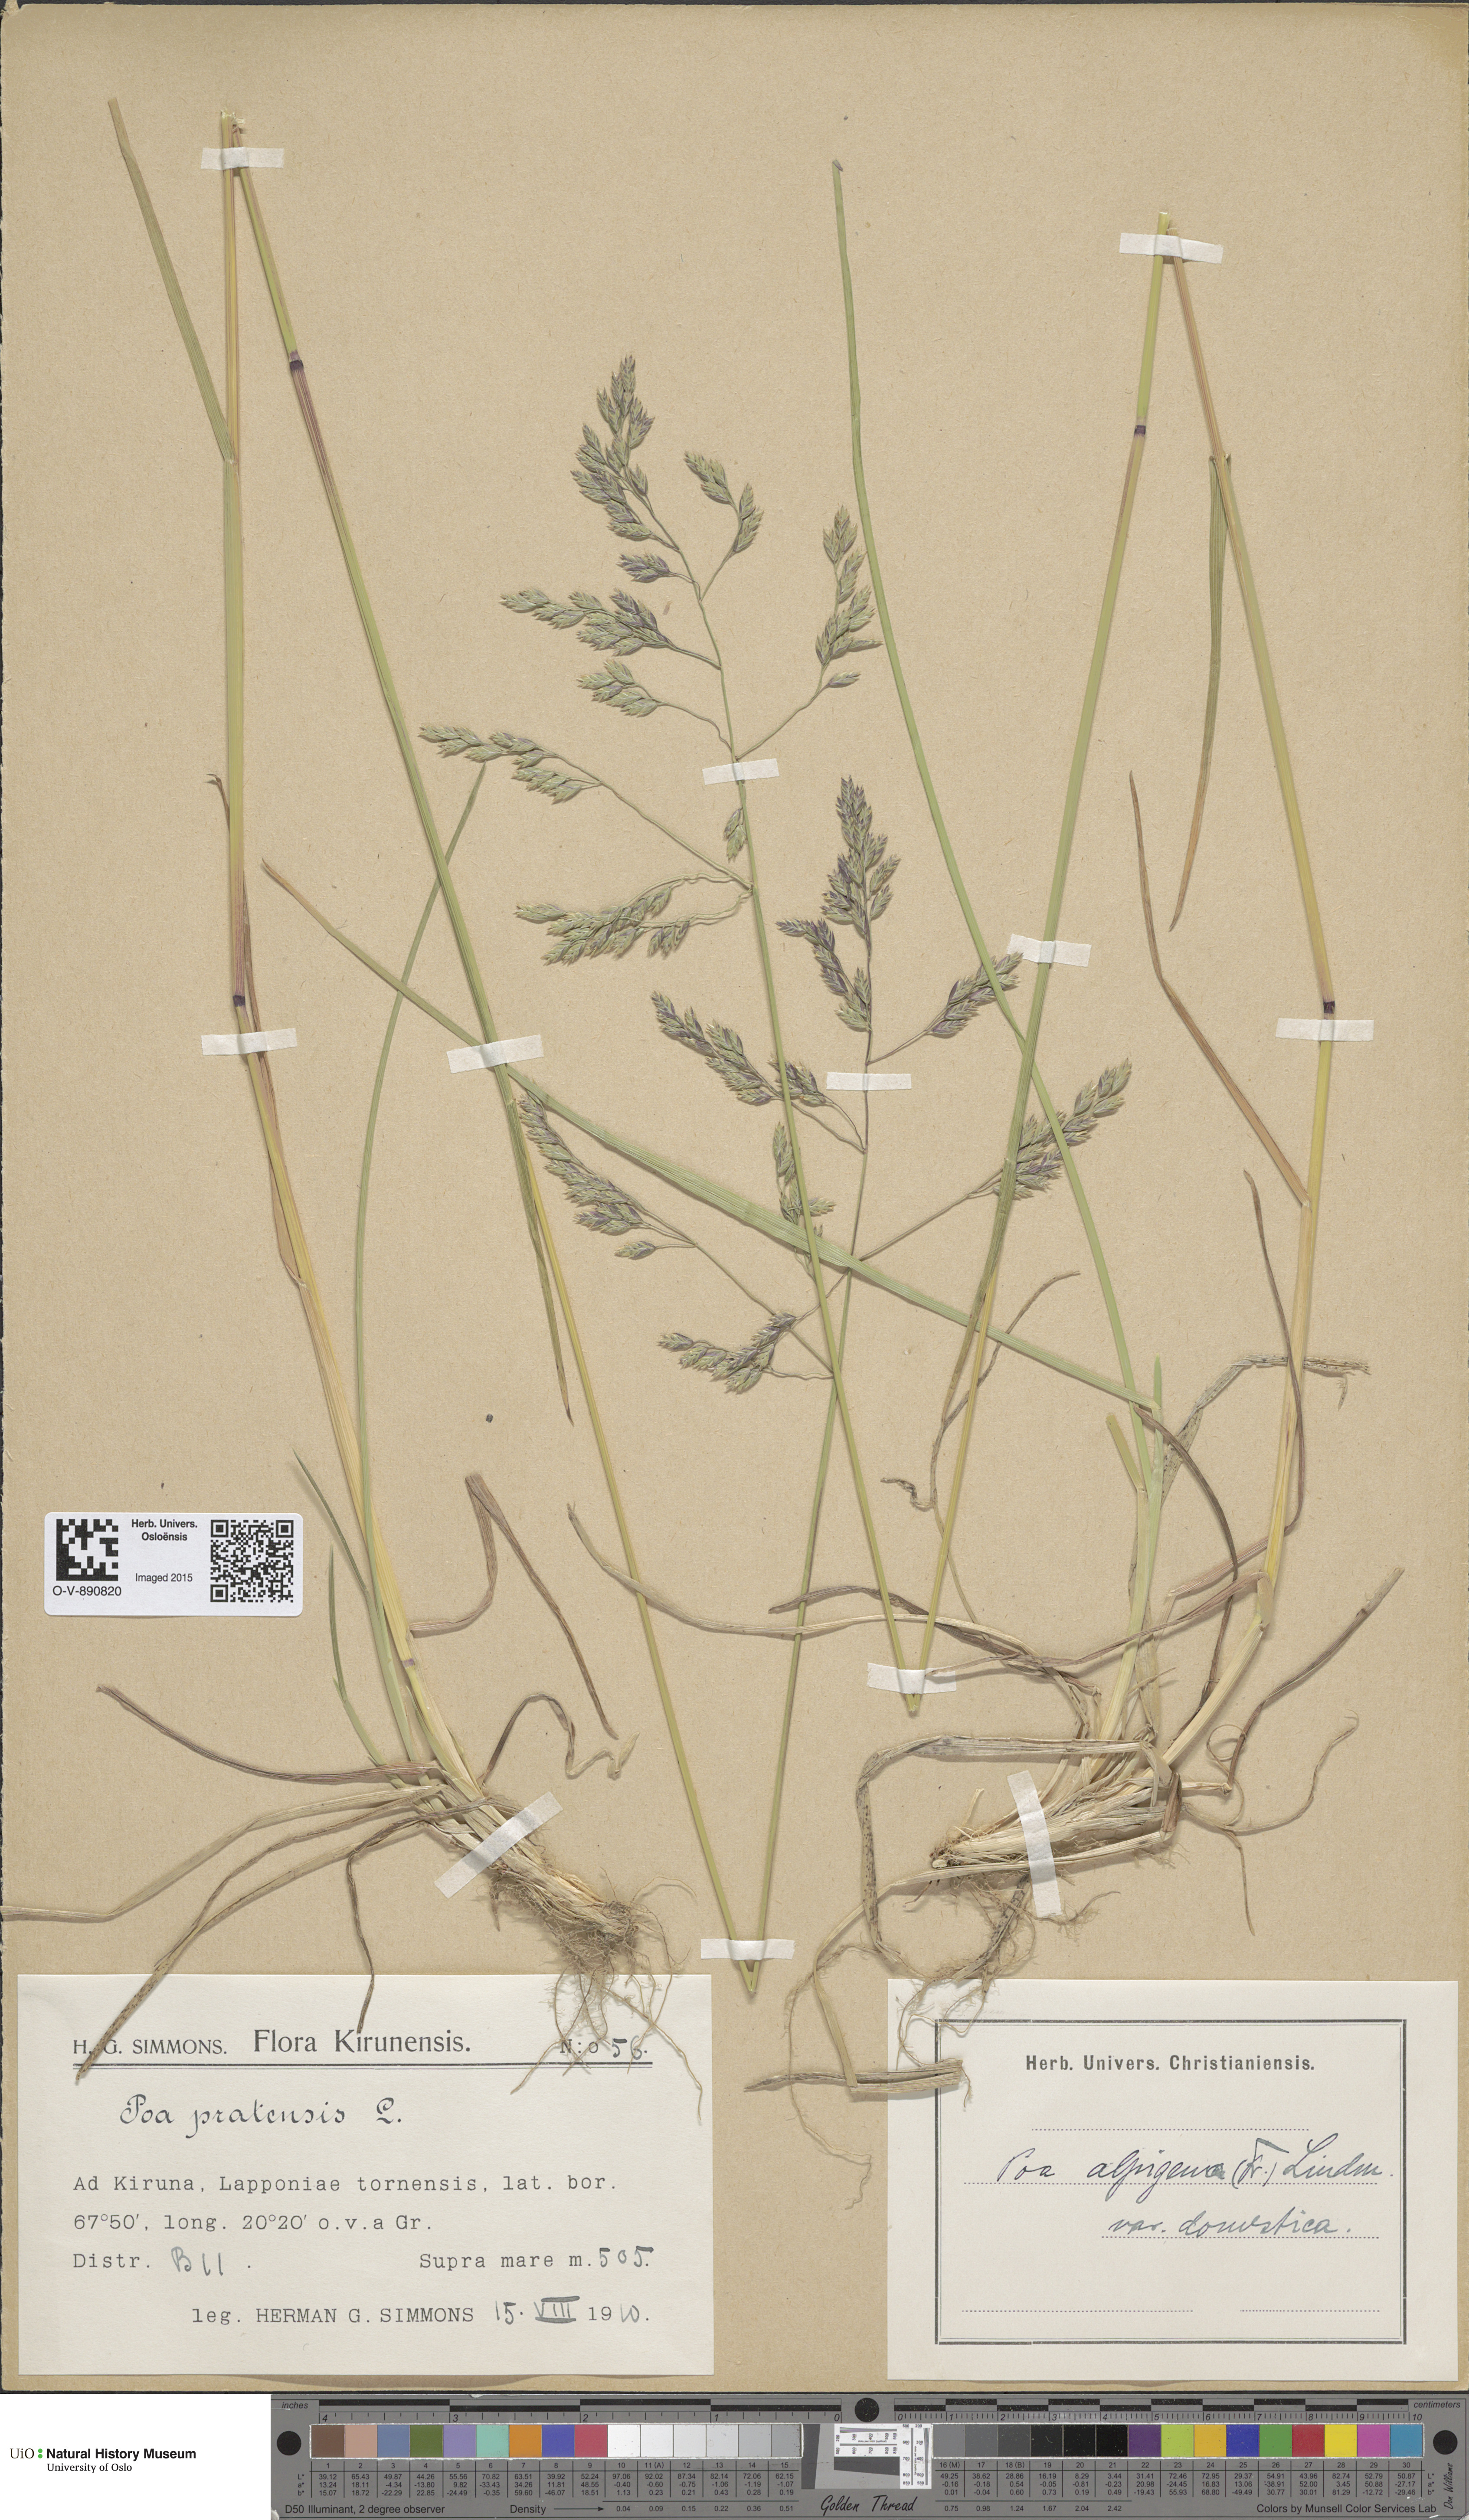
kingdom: Plantae
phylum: Tracheophyta
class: Liliopsida
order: Poales
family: Poaceae
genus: Poa
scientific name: Poa pratensis
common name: Kentucky bluegrass
